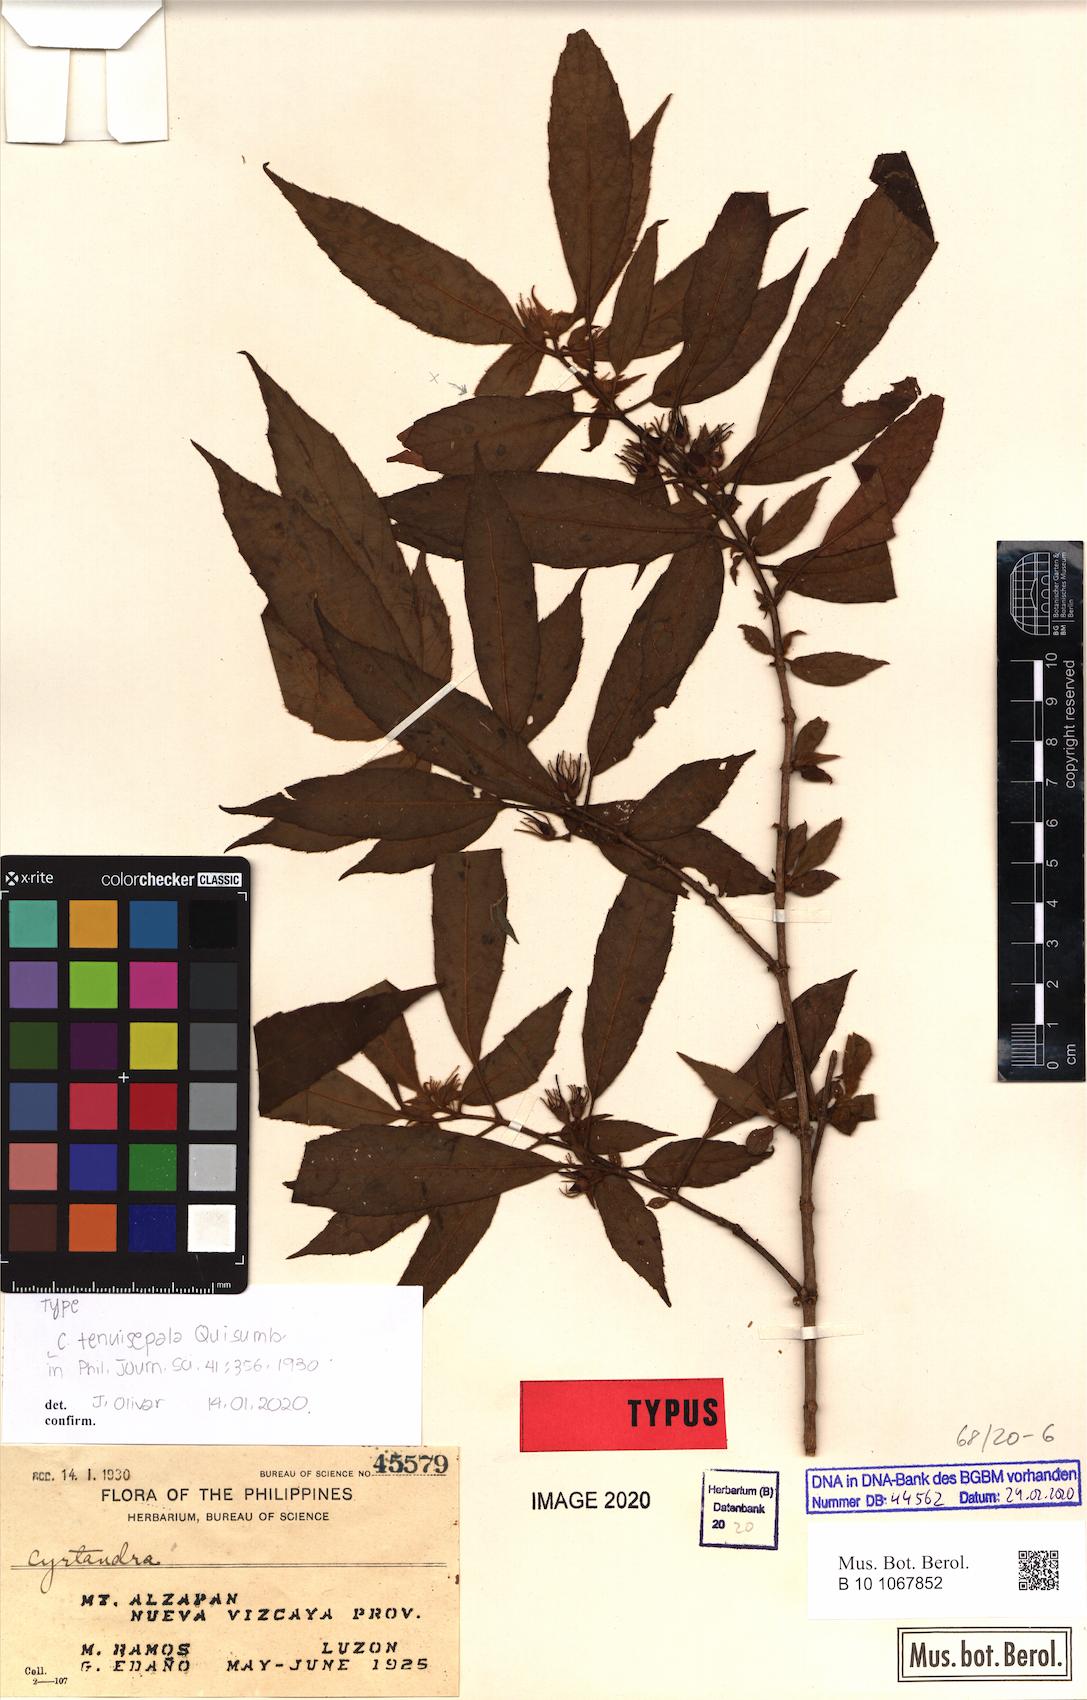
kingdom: Plantae
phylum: Tracheophyta
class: Magnoliopsida
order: Lamiales
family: Gesneriaceae
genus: Cyrtandra
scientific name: Cyrtandra tenuisepala
